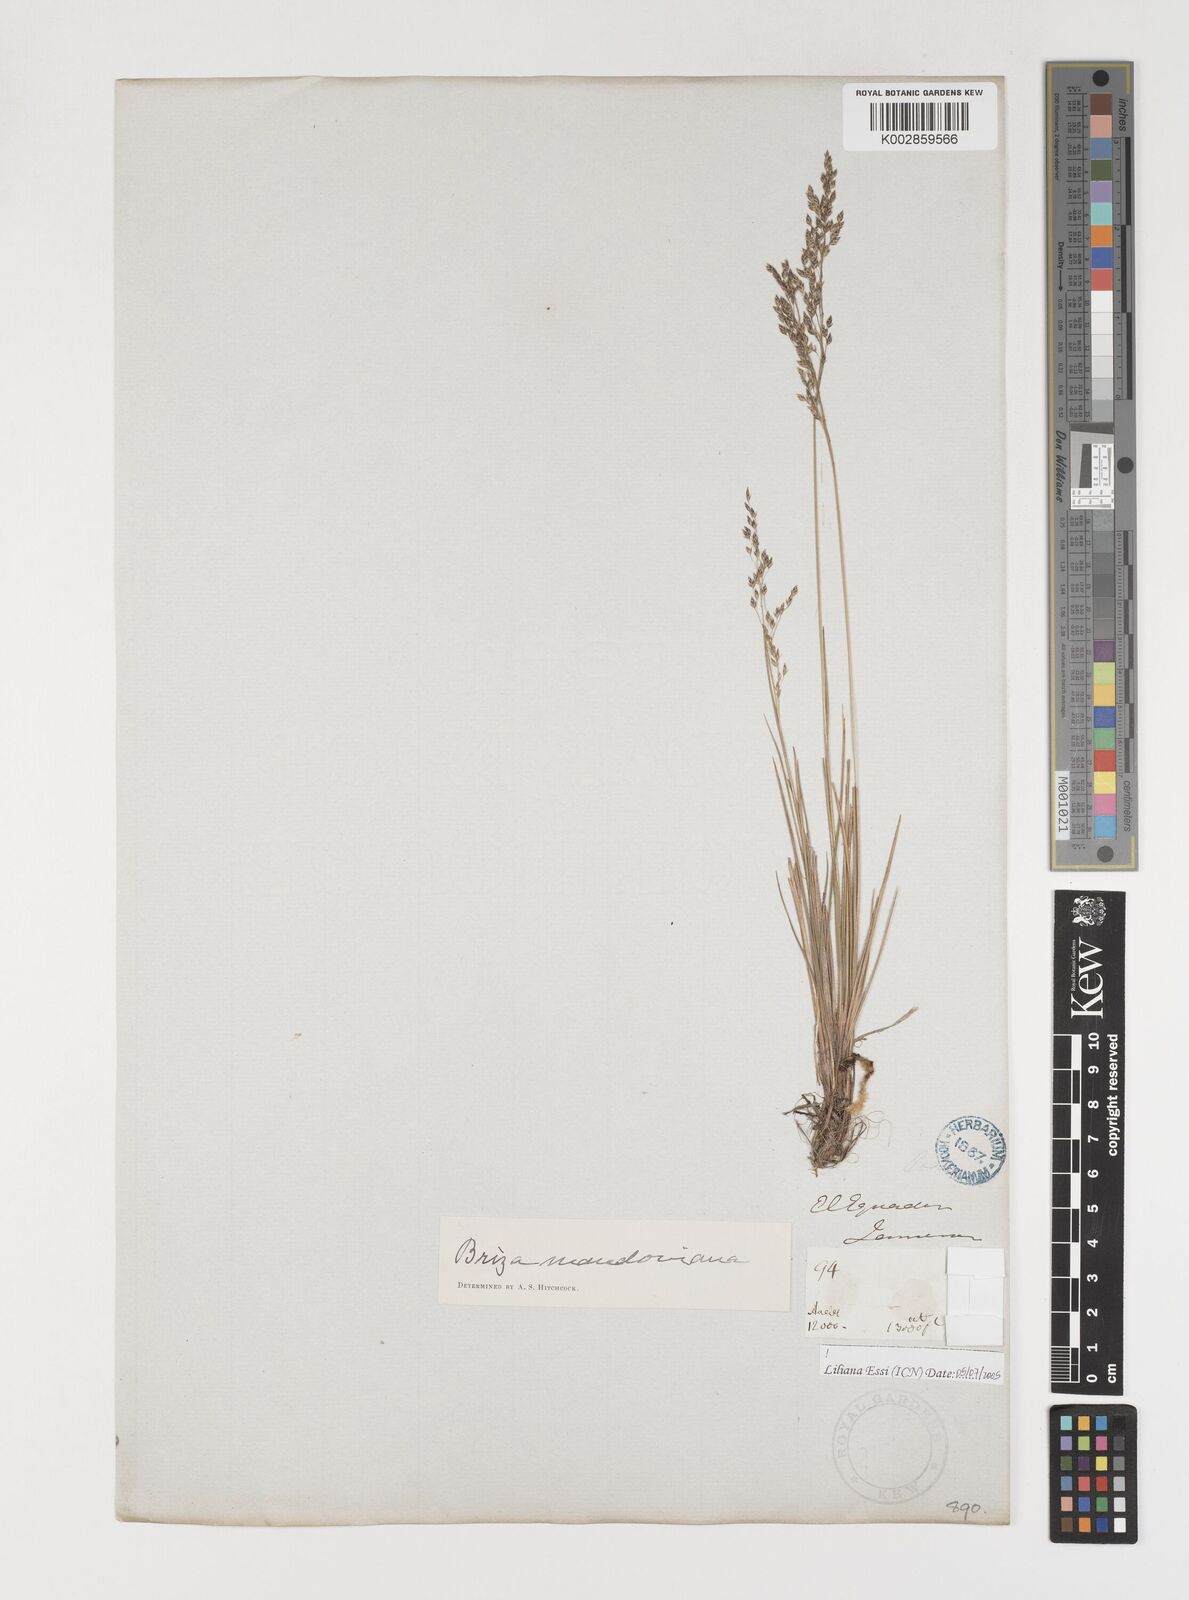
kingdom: Plantae
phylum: Tracheophyta
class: Liliopsida
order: Poales
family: Poaceae
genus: Poidium
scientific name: Poidium monandrum
